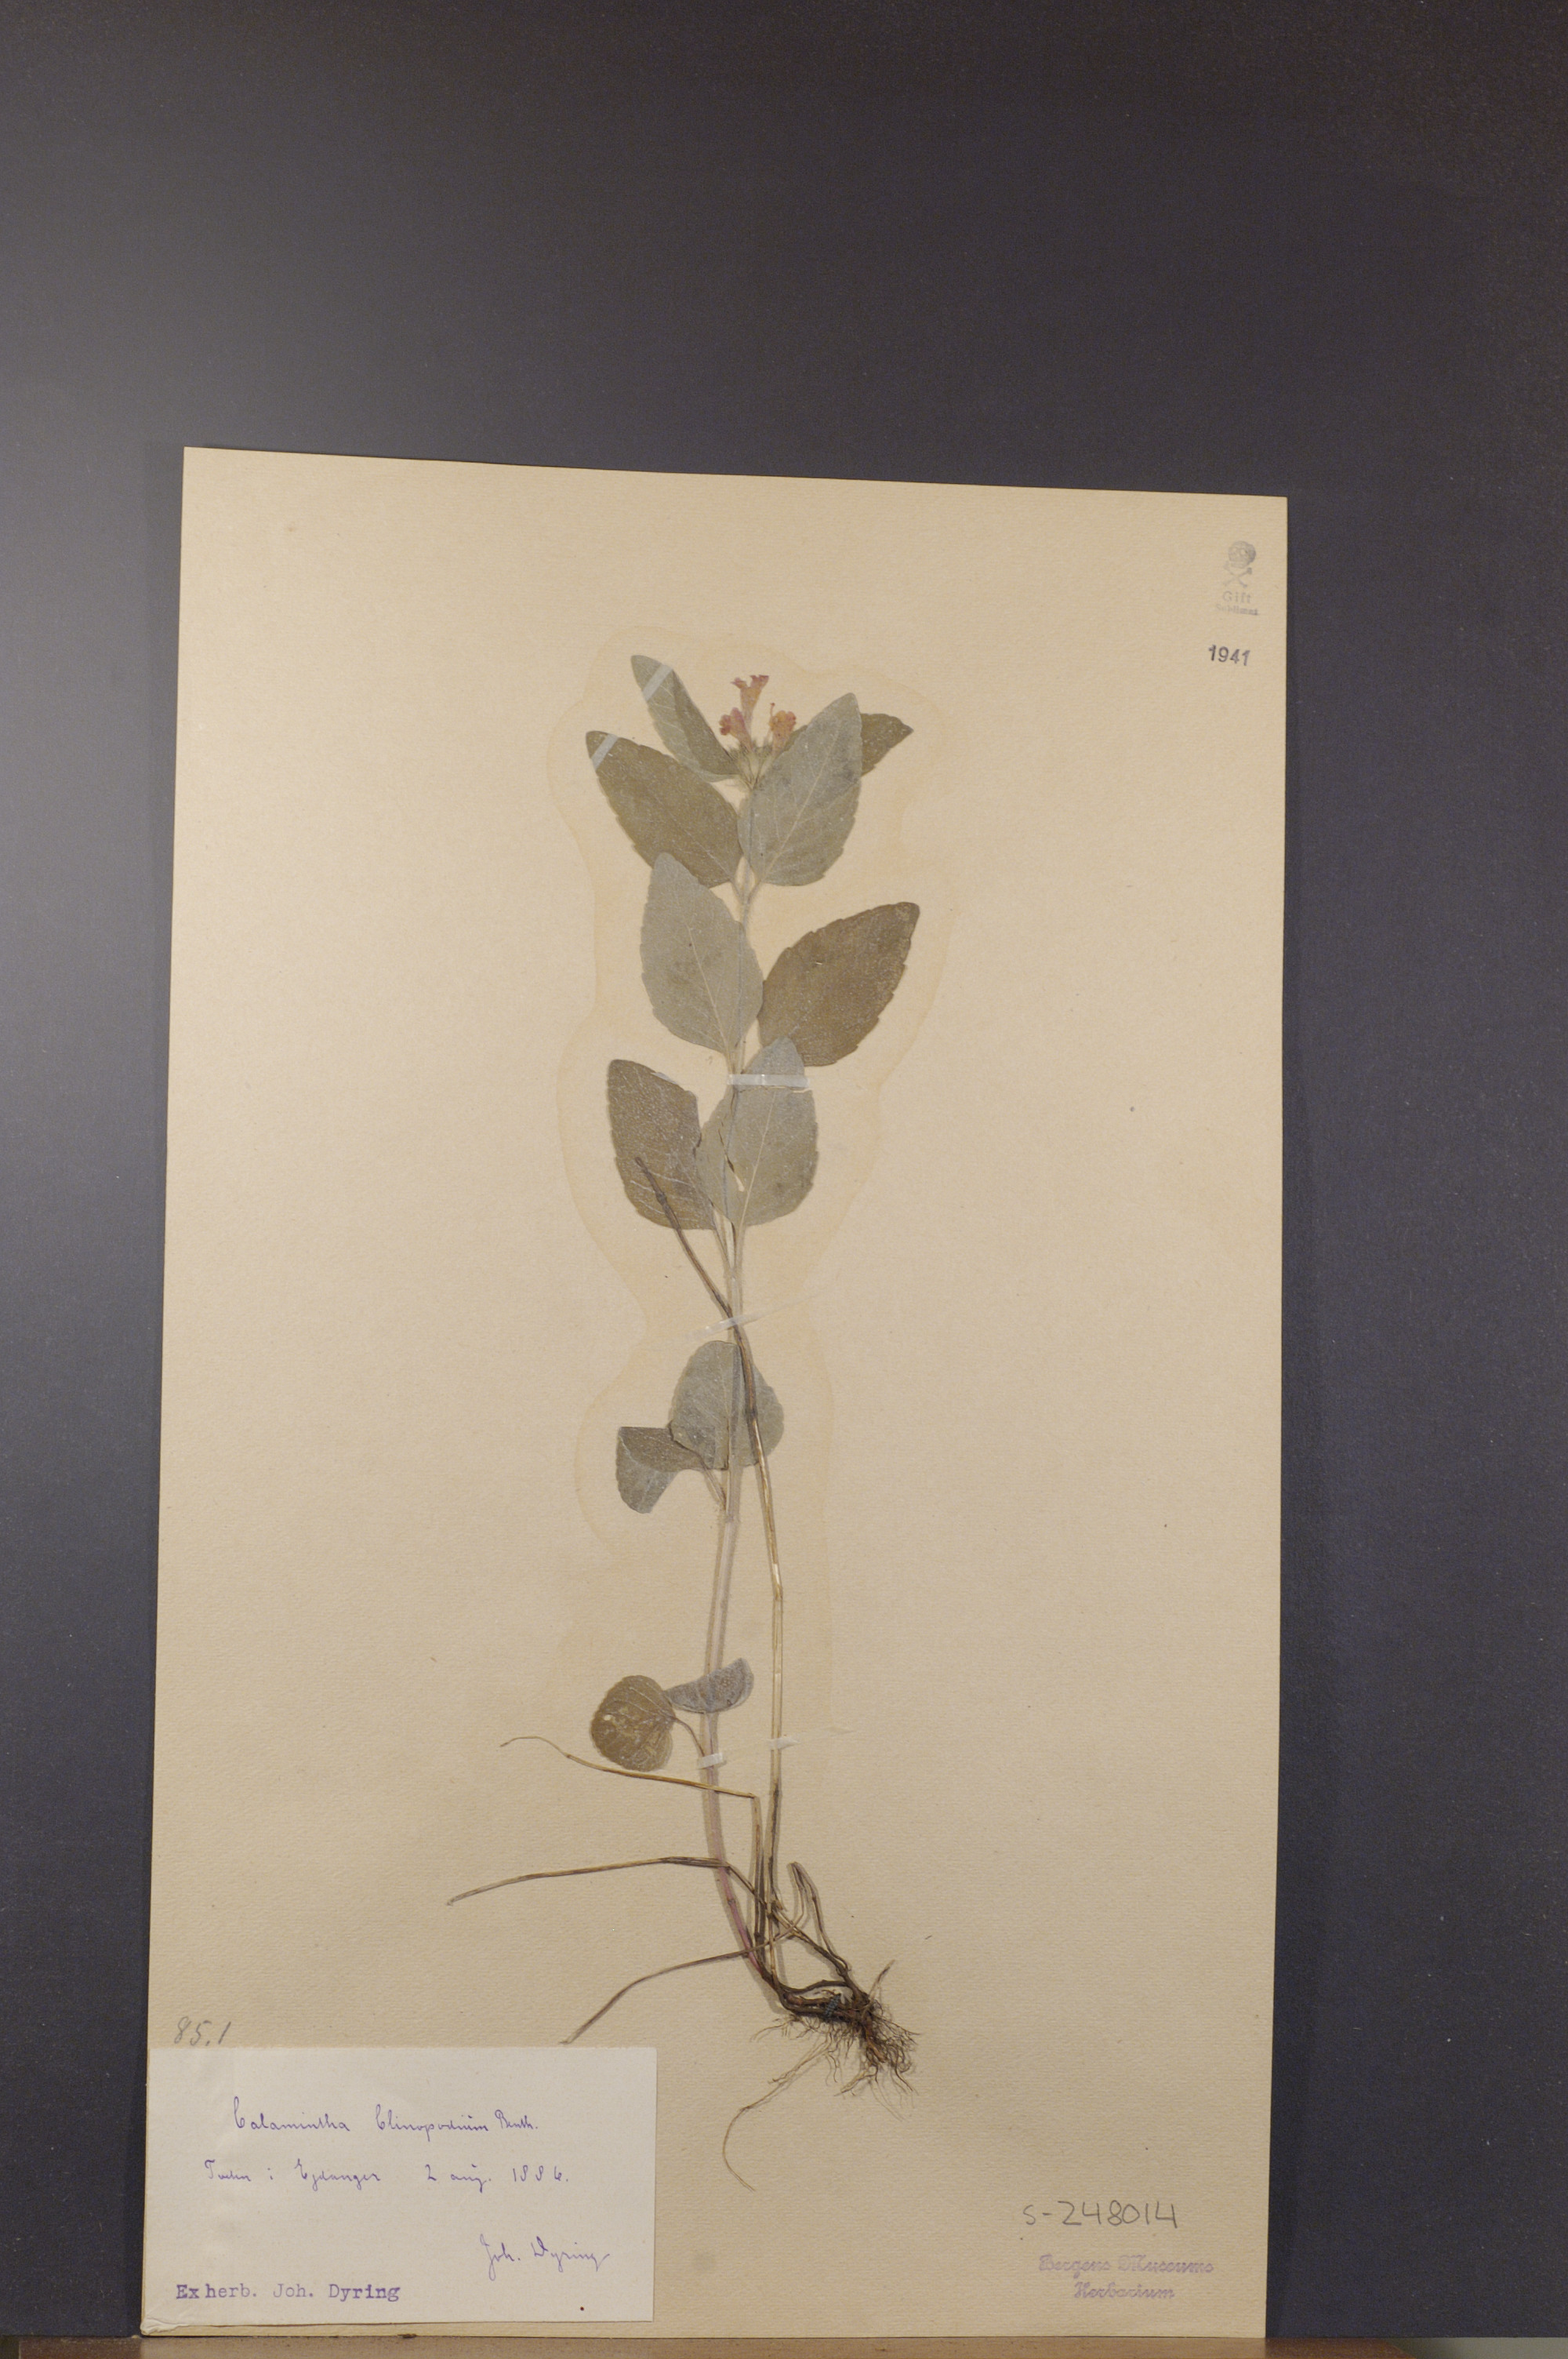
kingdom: Plantae
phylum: Tracheophyta
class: Magnoliopsida
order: Lamiales
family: Lamiaceae
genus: Clinopodium
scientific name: Clinopodium vulgare
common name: Wild basil
